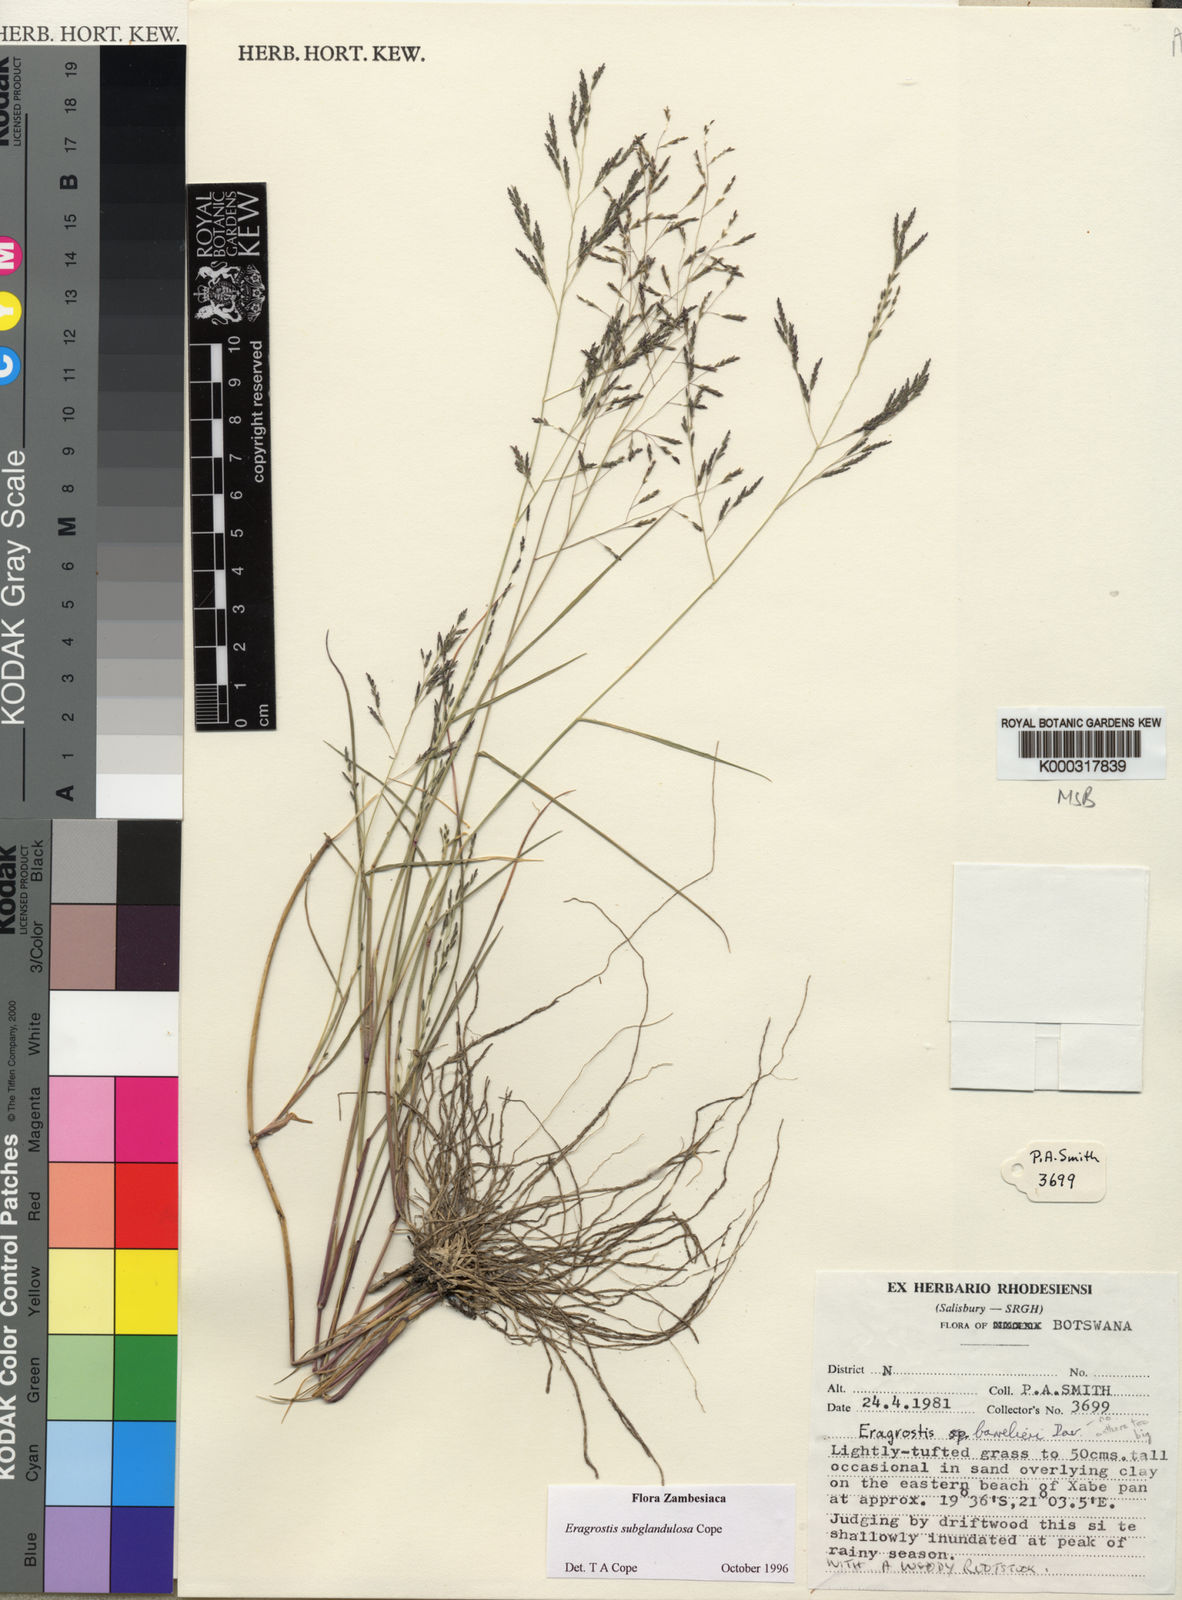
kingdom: Plantae
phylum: Tracheophyta
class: Liliopsida
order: Poales
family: Poaceae
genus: Eragrostis
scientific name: Eragrostis subglandulosa
